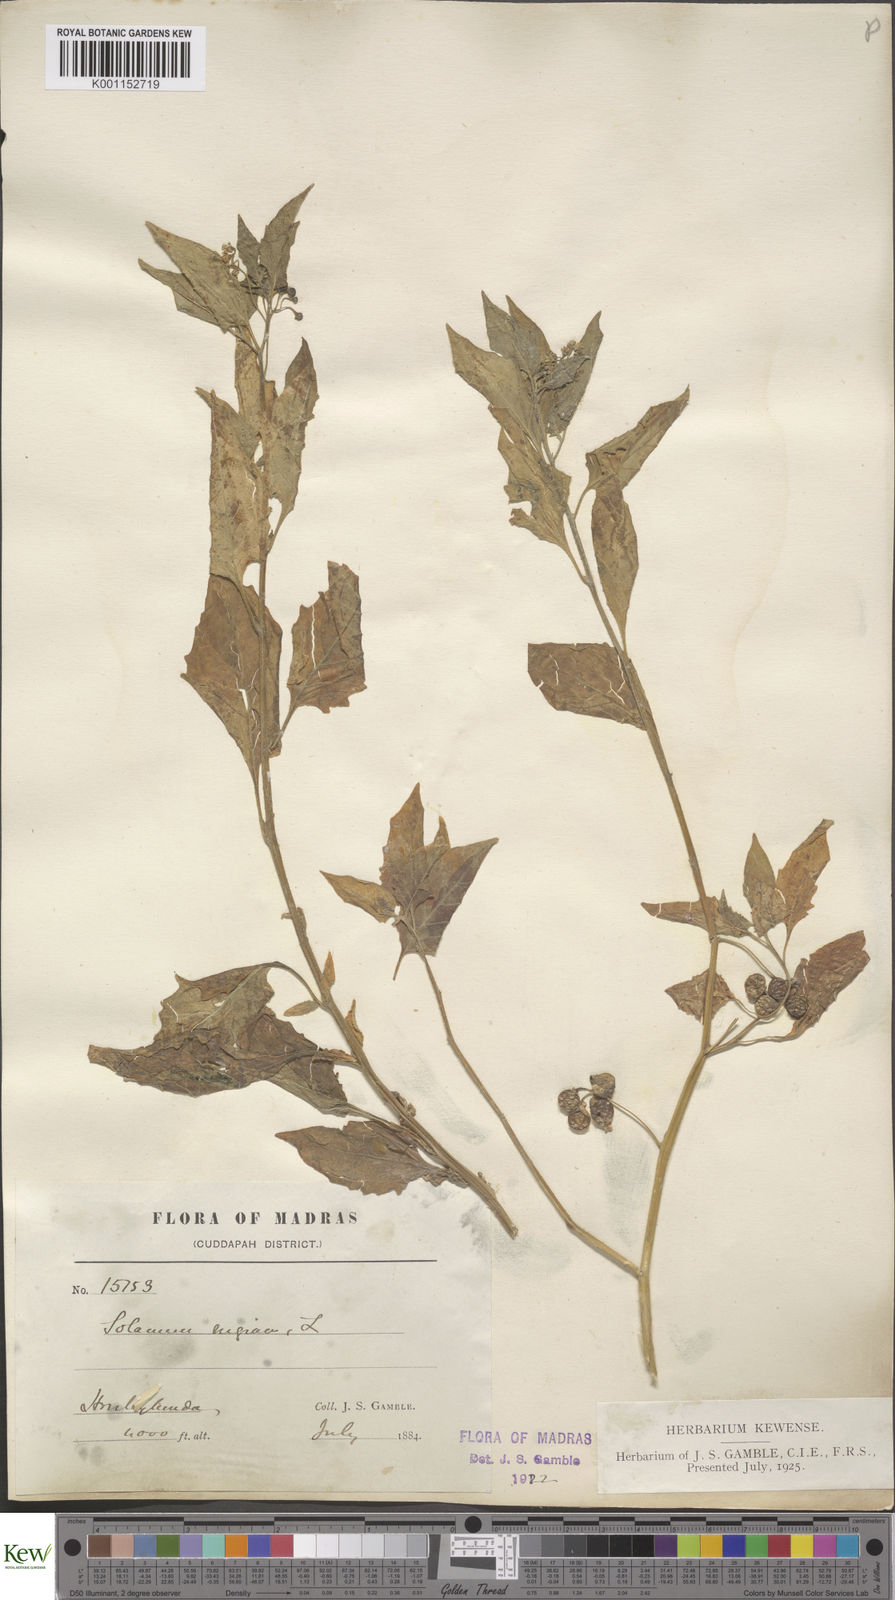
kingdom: Plantae
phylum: Tracheophyta
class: Magnoliopsida
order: Solanales
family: Solanaceae
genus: Solanum
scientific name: Solanum nigrum
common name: Black nightshade
